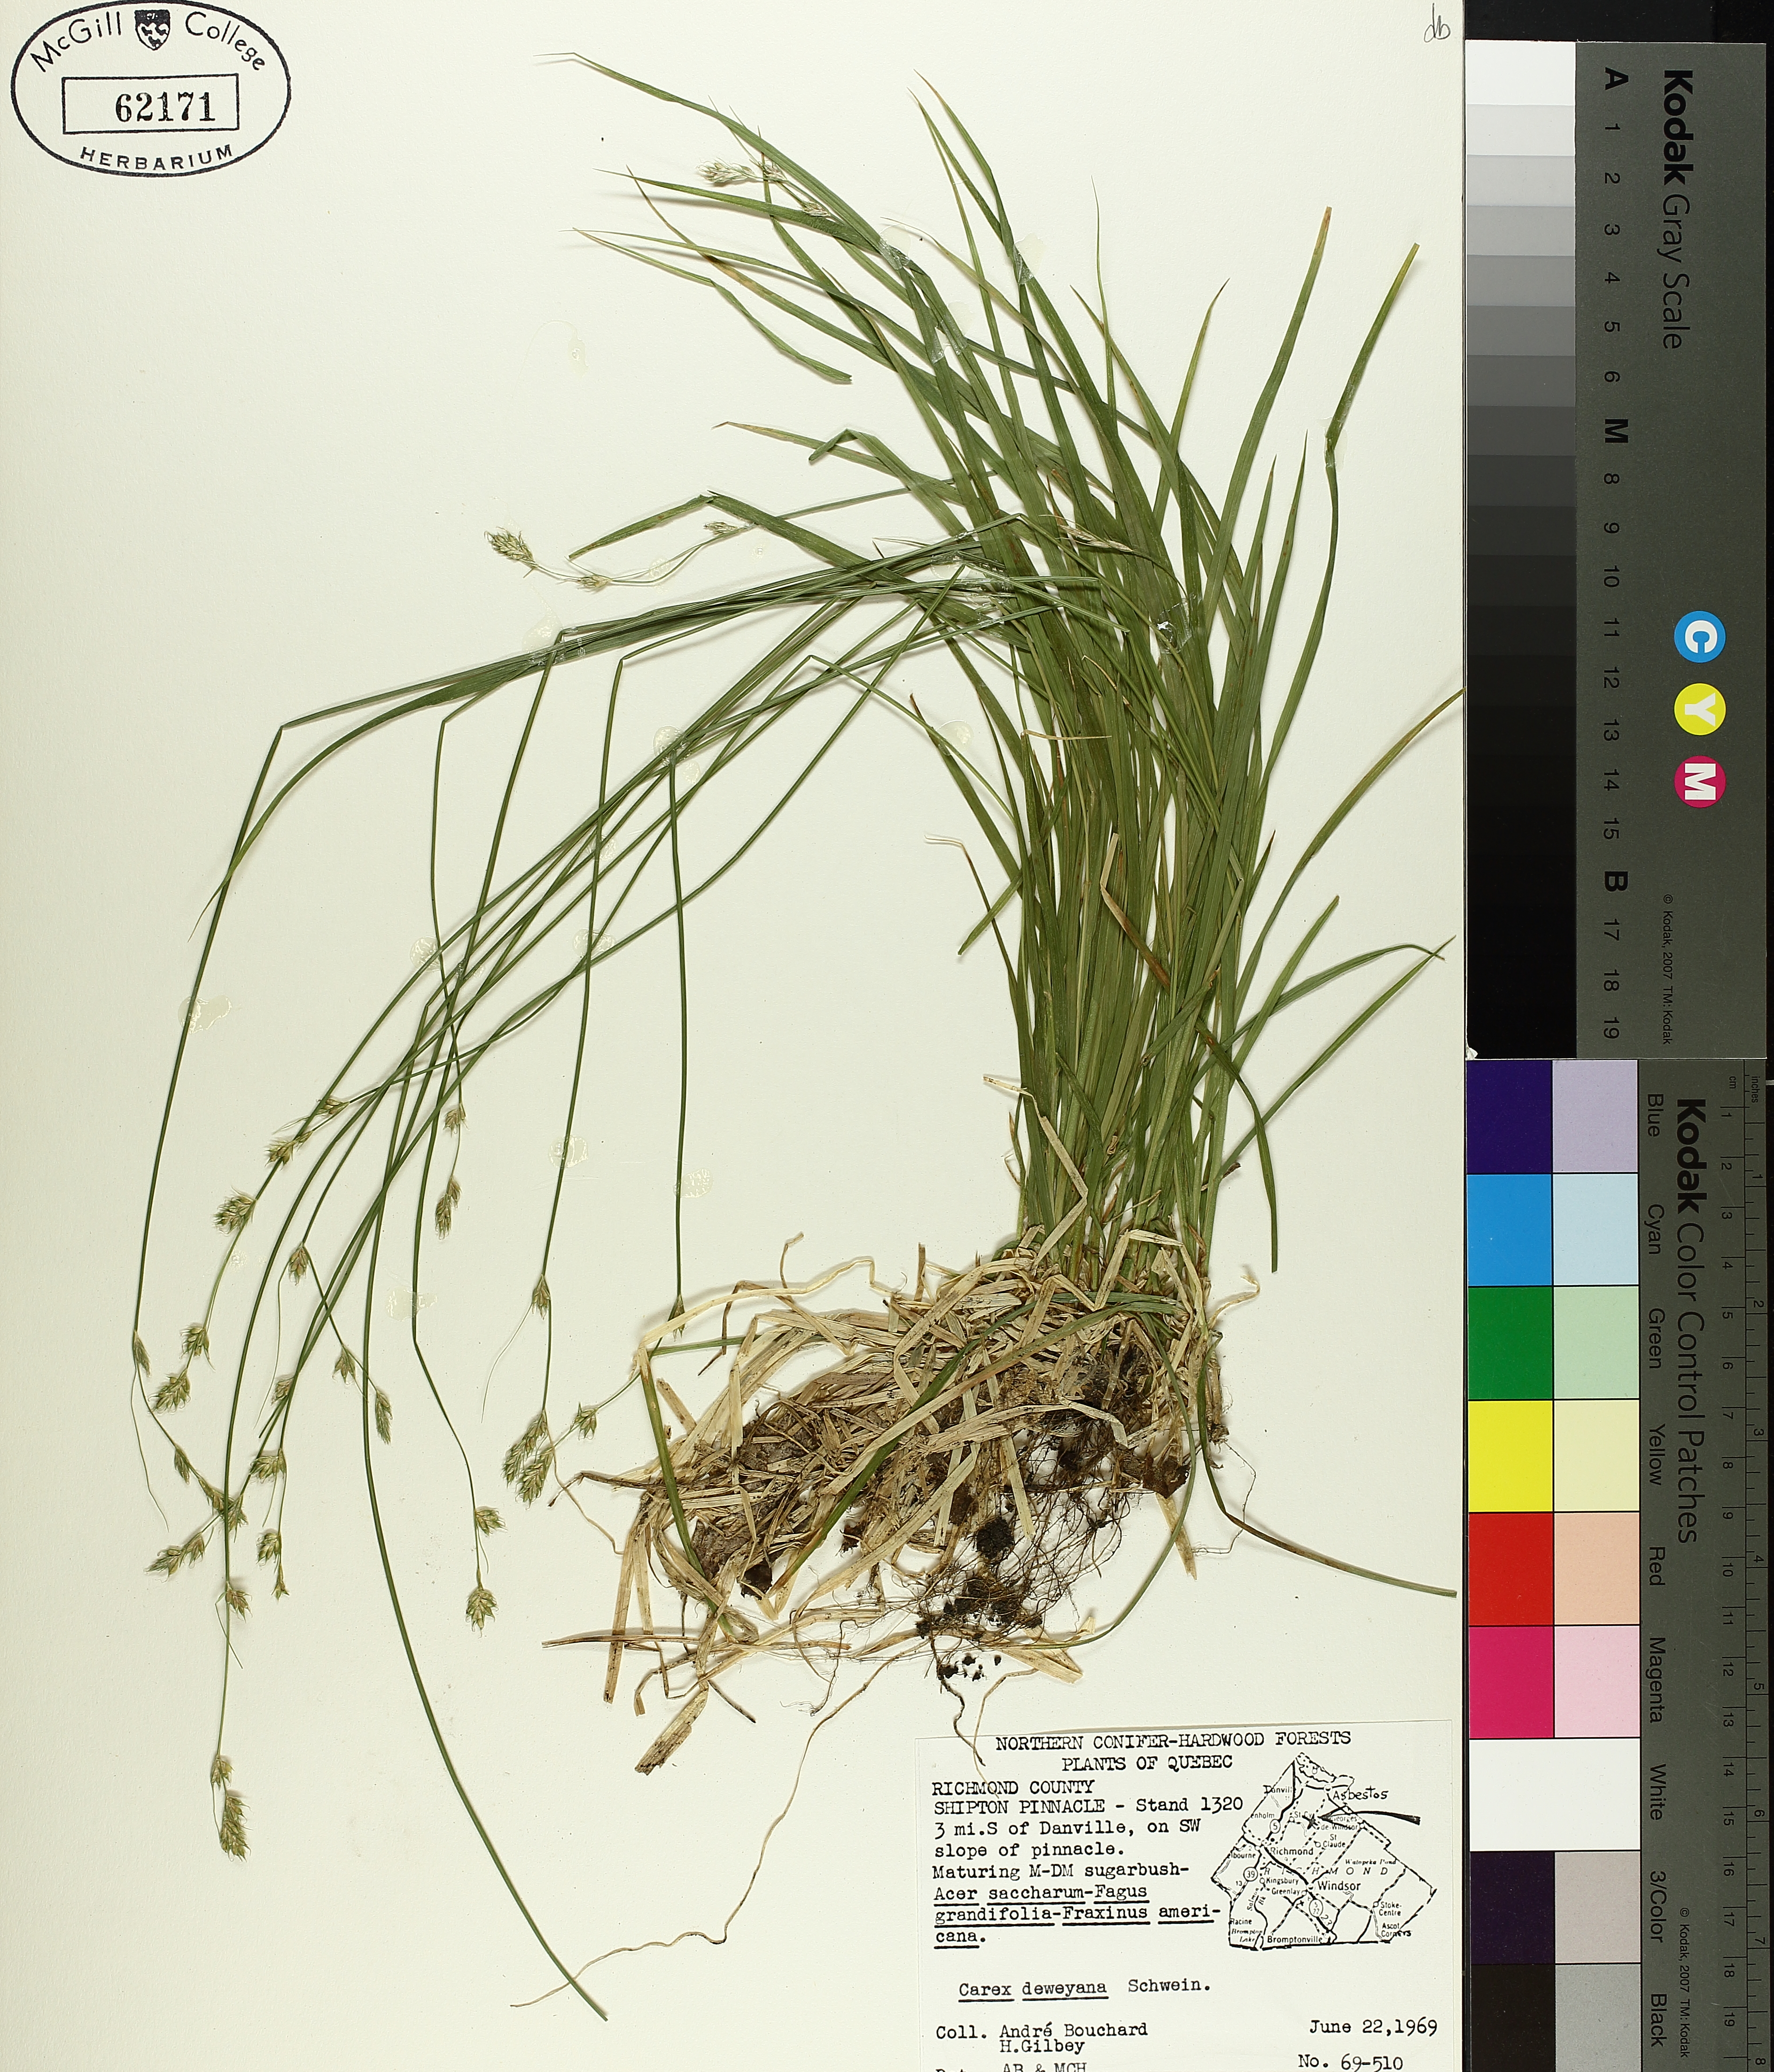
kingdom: Plantae
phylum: Tracheophyta
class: Liliopsida
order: Poales
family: Cyperaceae
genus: Carex
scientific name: Carex deweyana
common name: Dewey's sedge
